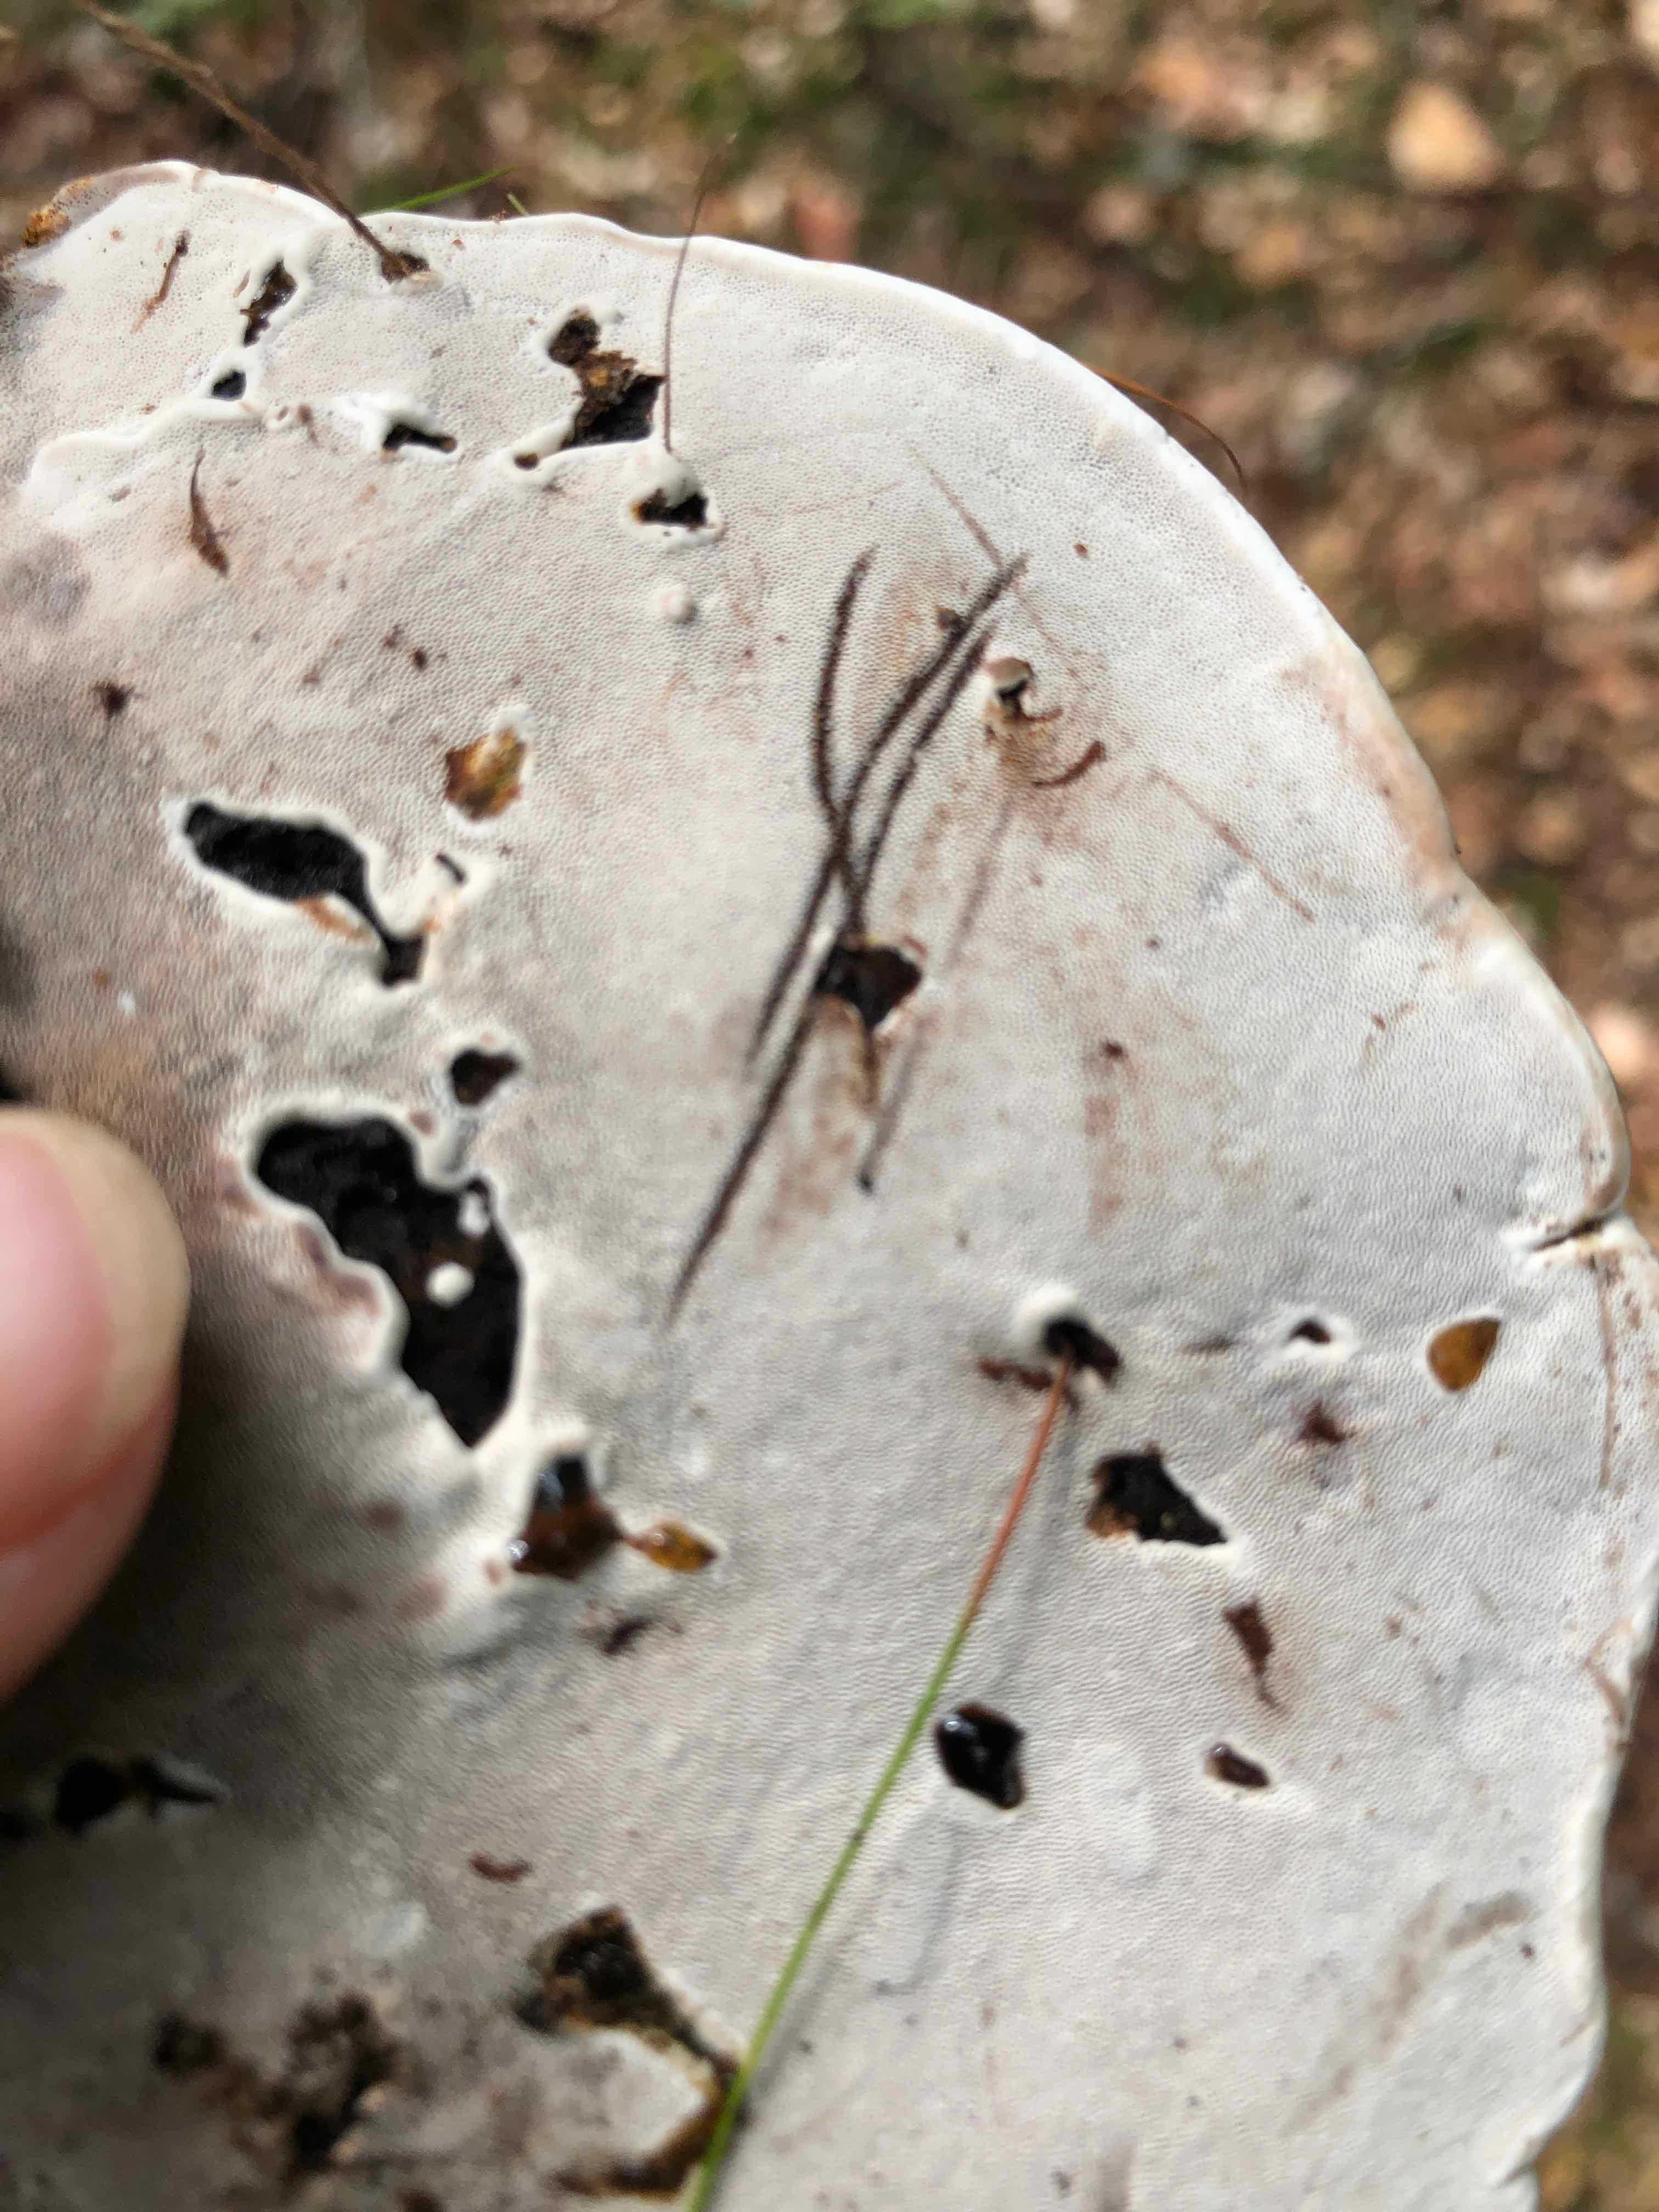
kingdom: Fungi
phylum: Basidiomycota
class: Agaricomycetes
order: Polyporales
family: Polyporaceae
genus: Ganoderma
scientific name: Ganoderma applanatum
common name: flad lakporesvamp
